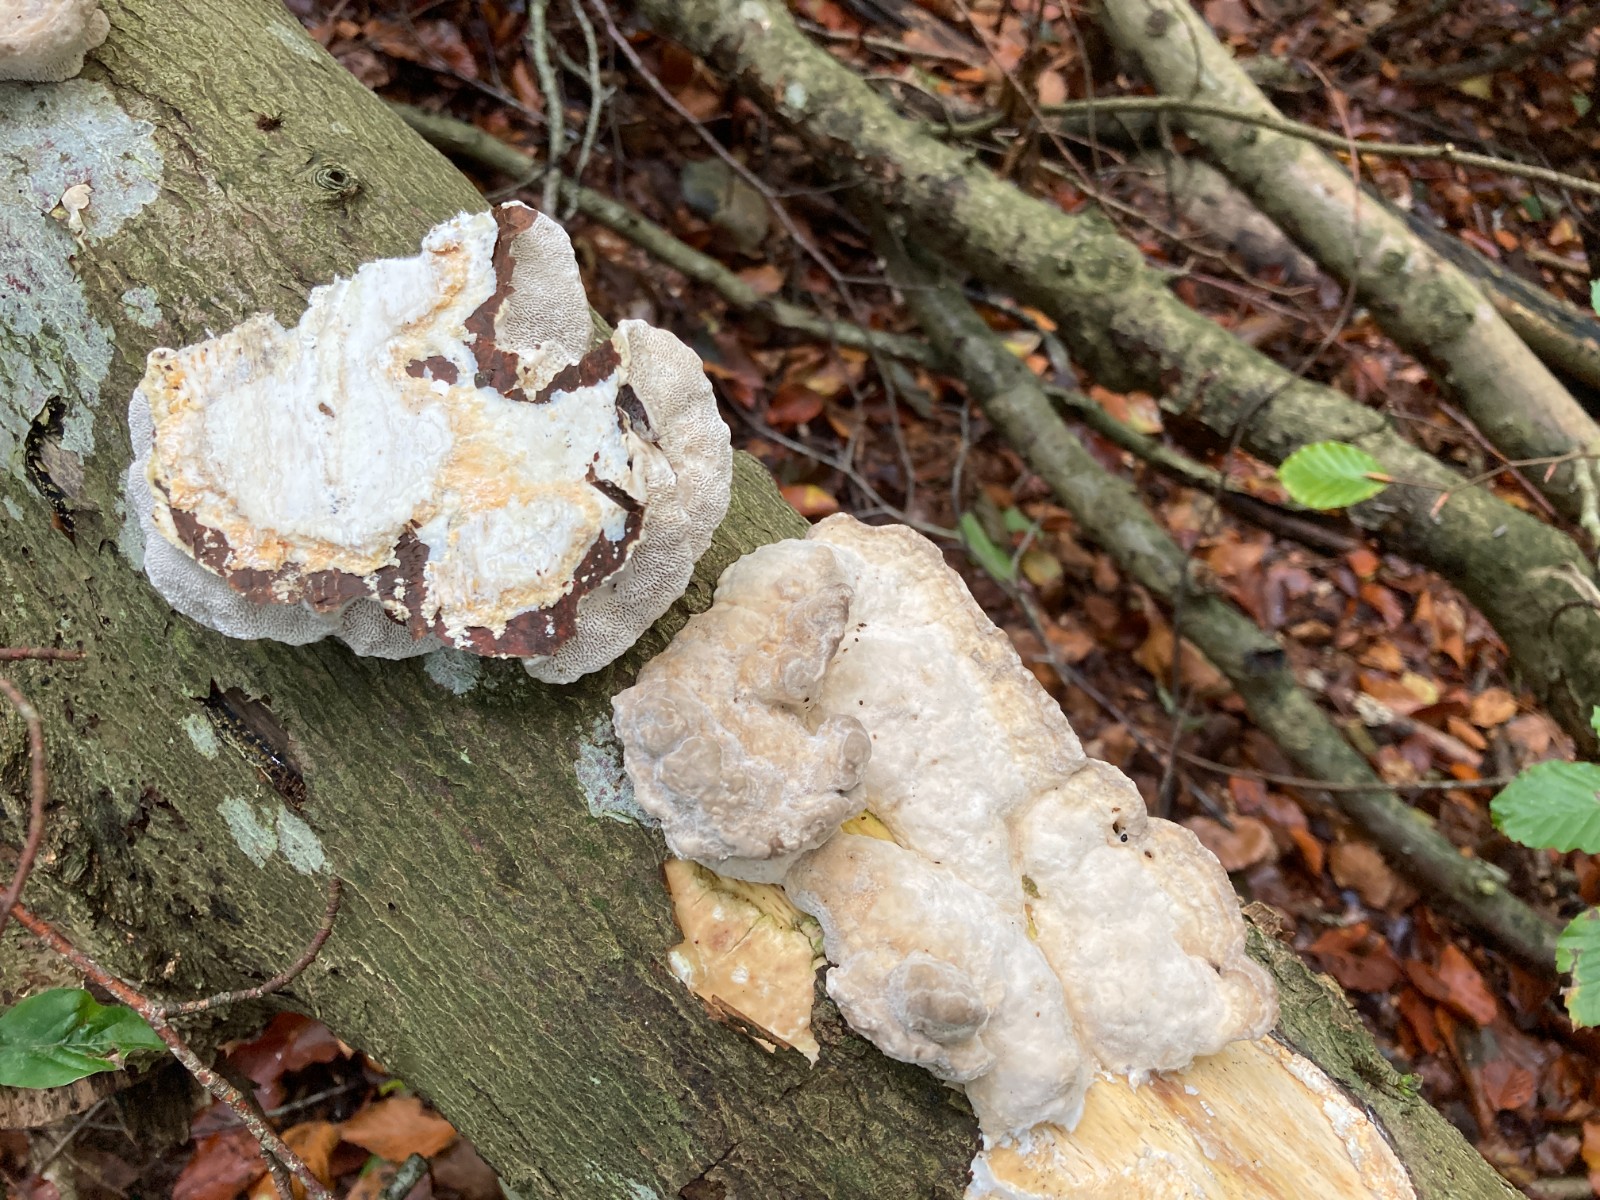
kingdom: Fungi
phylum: Basidiomycota
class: Agaricomycetes
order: Polyporales
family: Polyporaceae
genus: Trametes
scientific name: Trametes gibbosa
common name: puklet læderporesvamp
